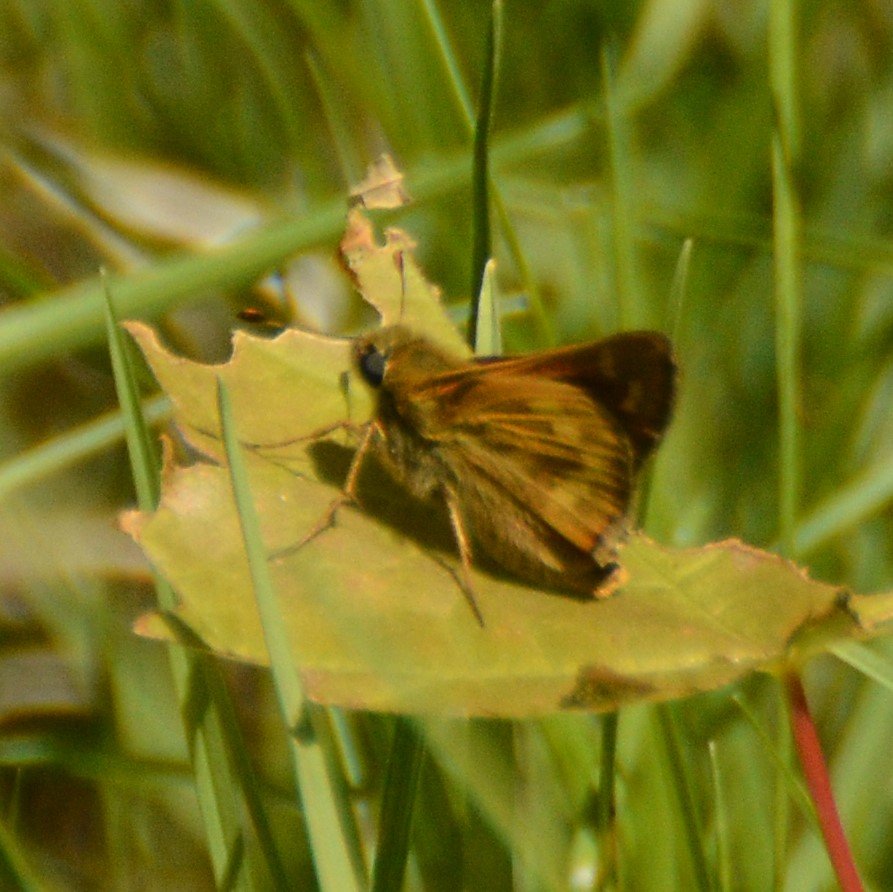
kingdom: Animalia
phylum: Arthropoda
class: Insecta
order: Lepidoptera
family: Hesperiidae
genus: Hesperia
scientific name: Hesperia sassacus
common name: Sassacus Skipper
